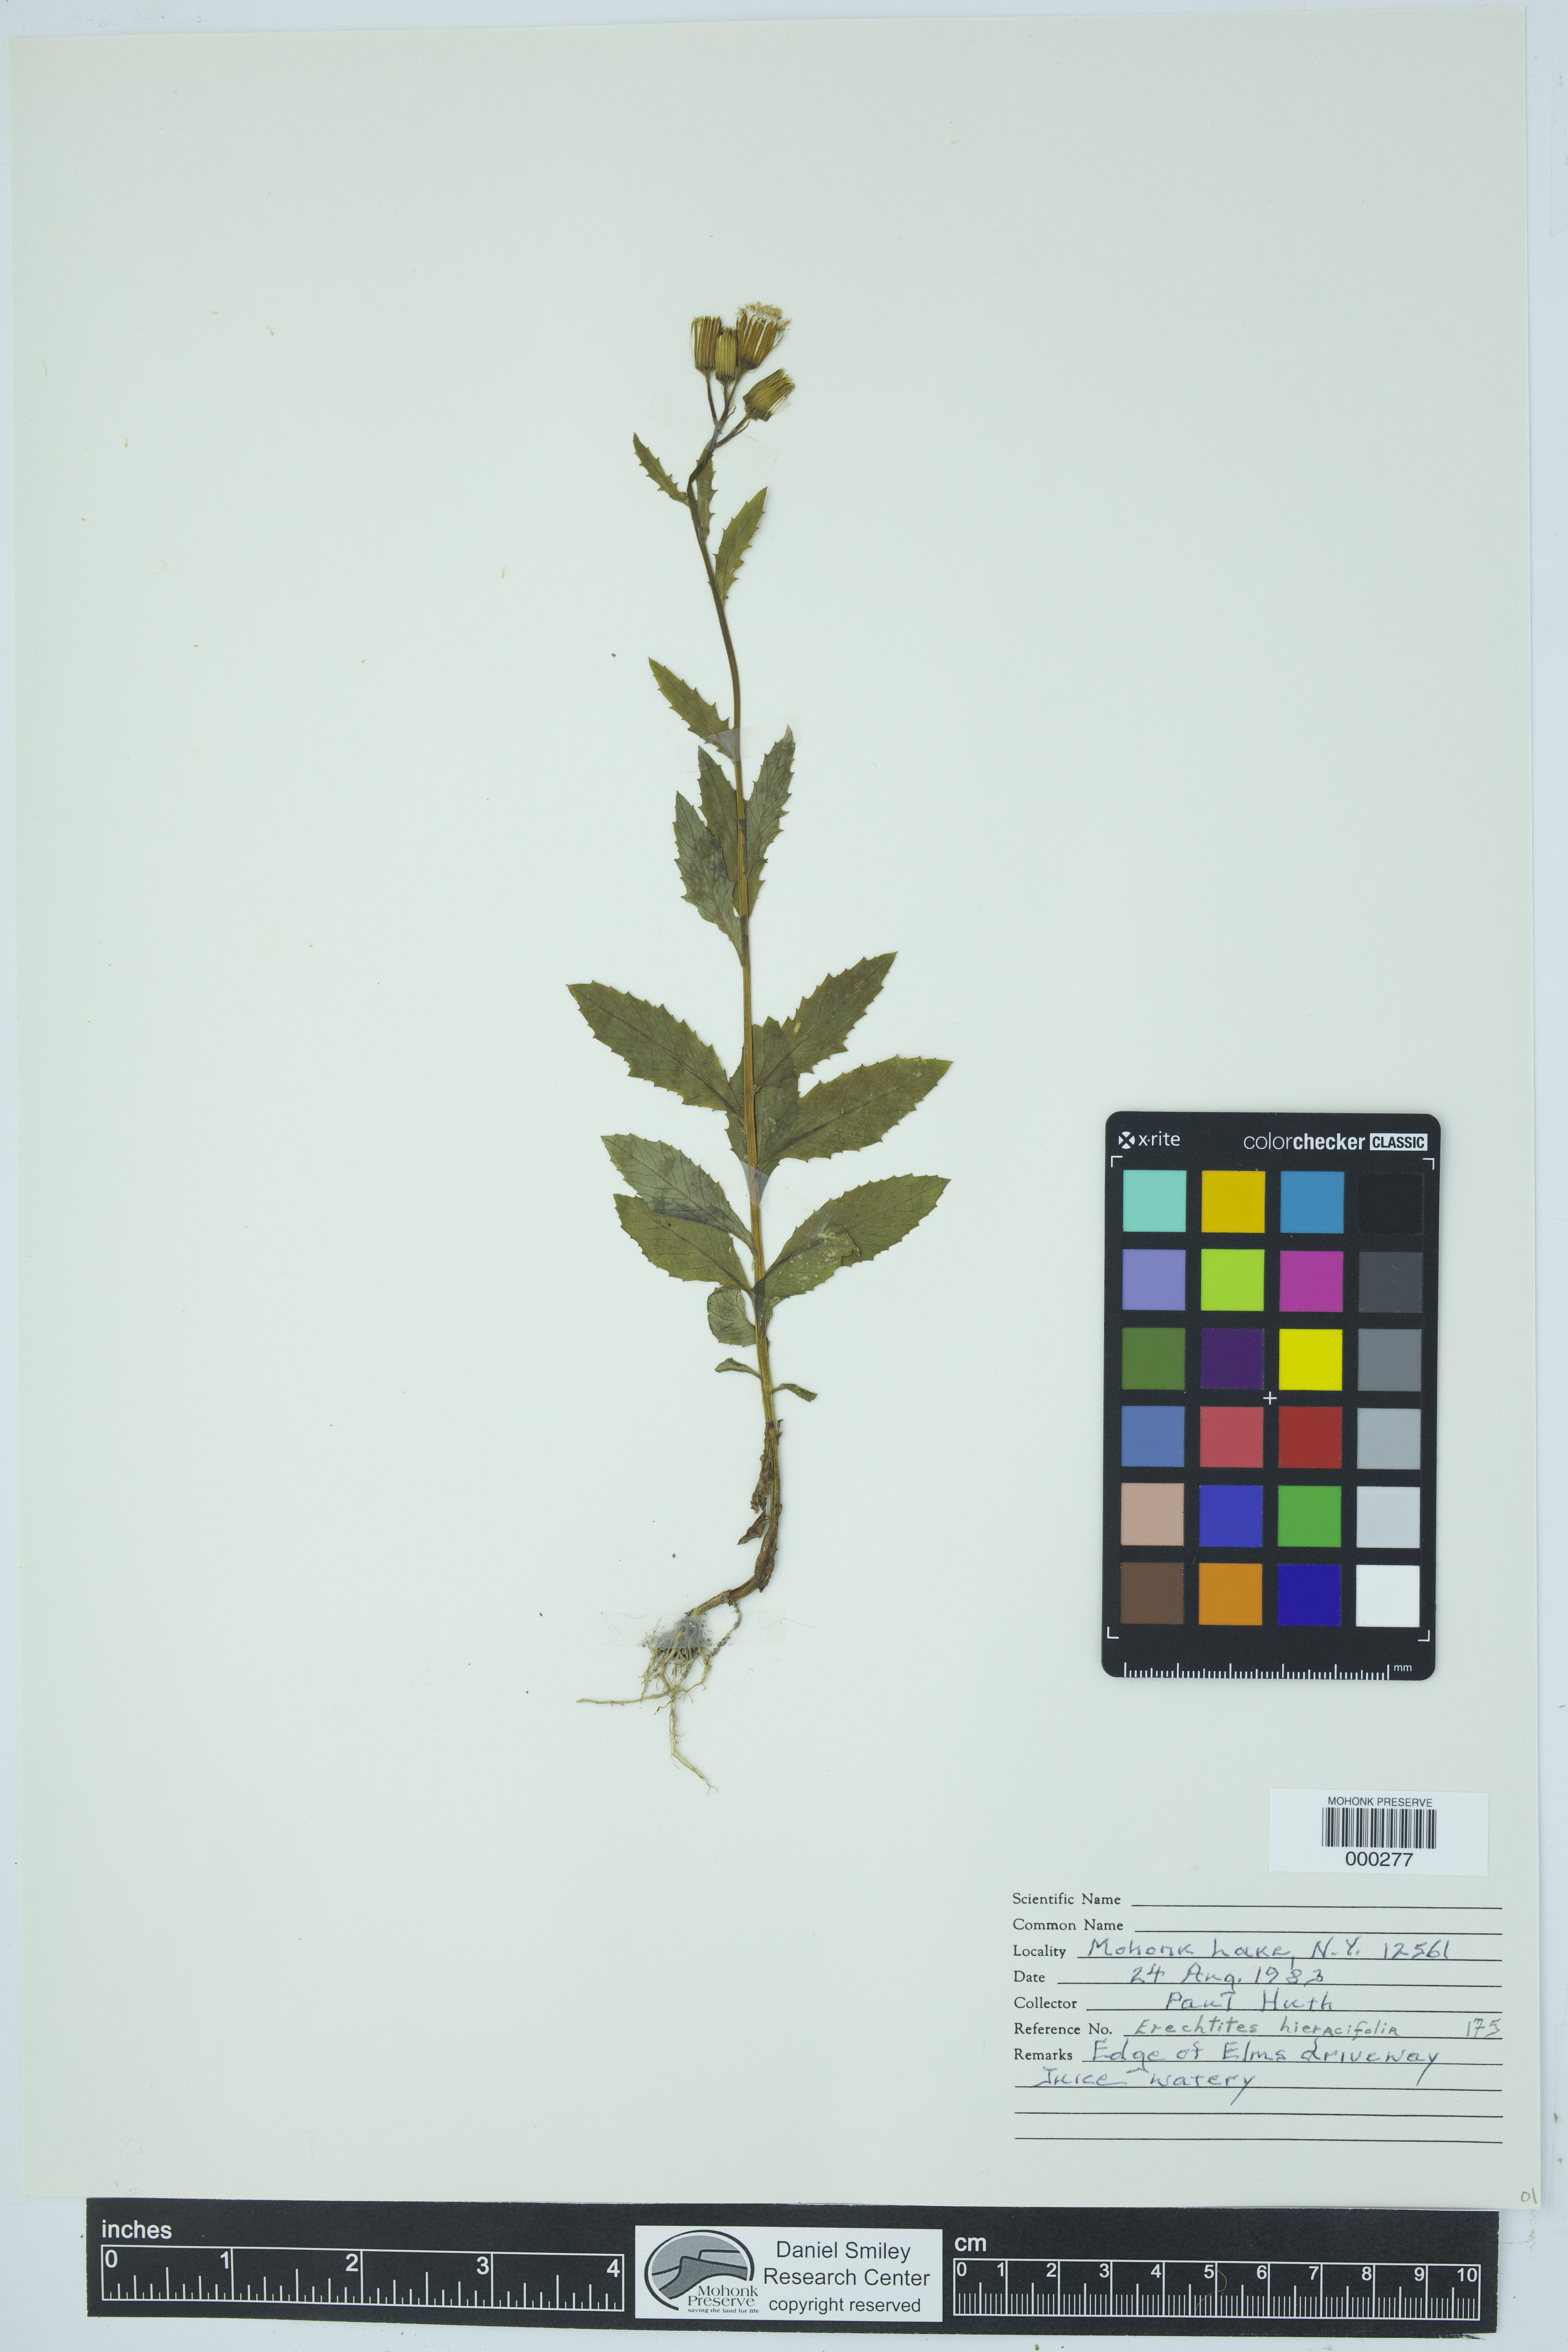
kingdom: Plantae
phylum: Tracheophyta
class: Magnoliopsida
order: Asterales
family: Asteraceae
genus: Erechtites
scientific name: Erechtites hieraciifolius
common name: American burnweed
